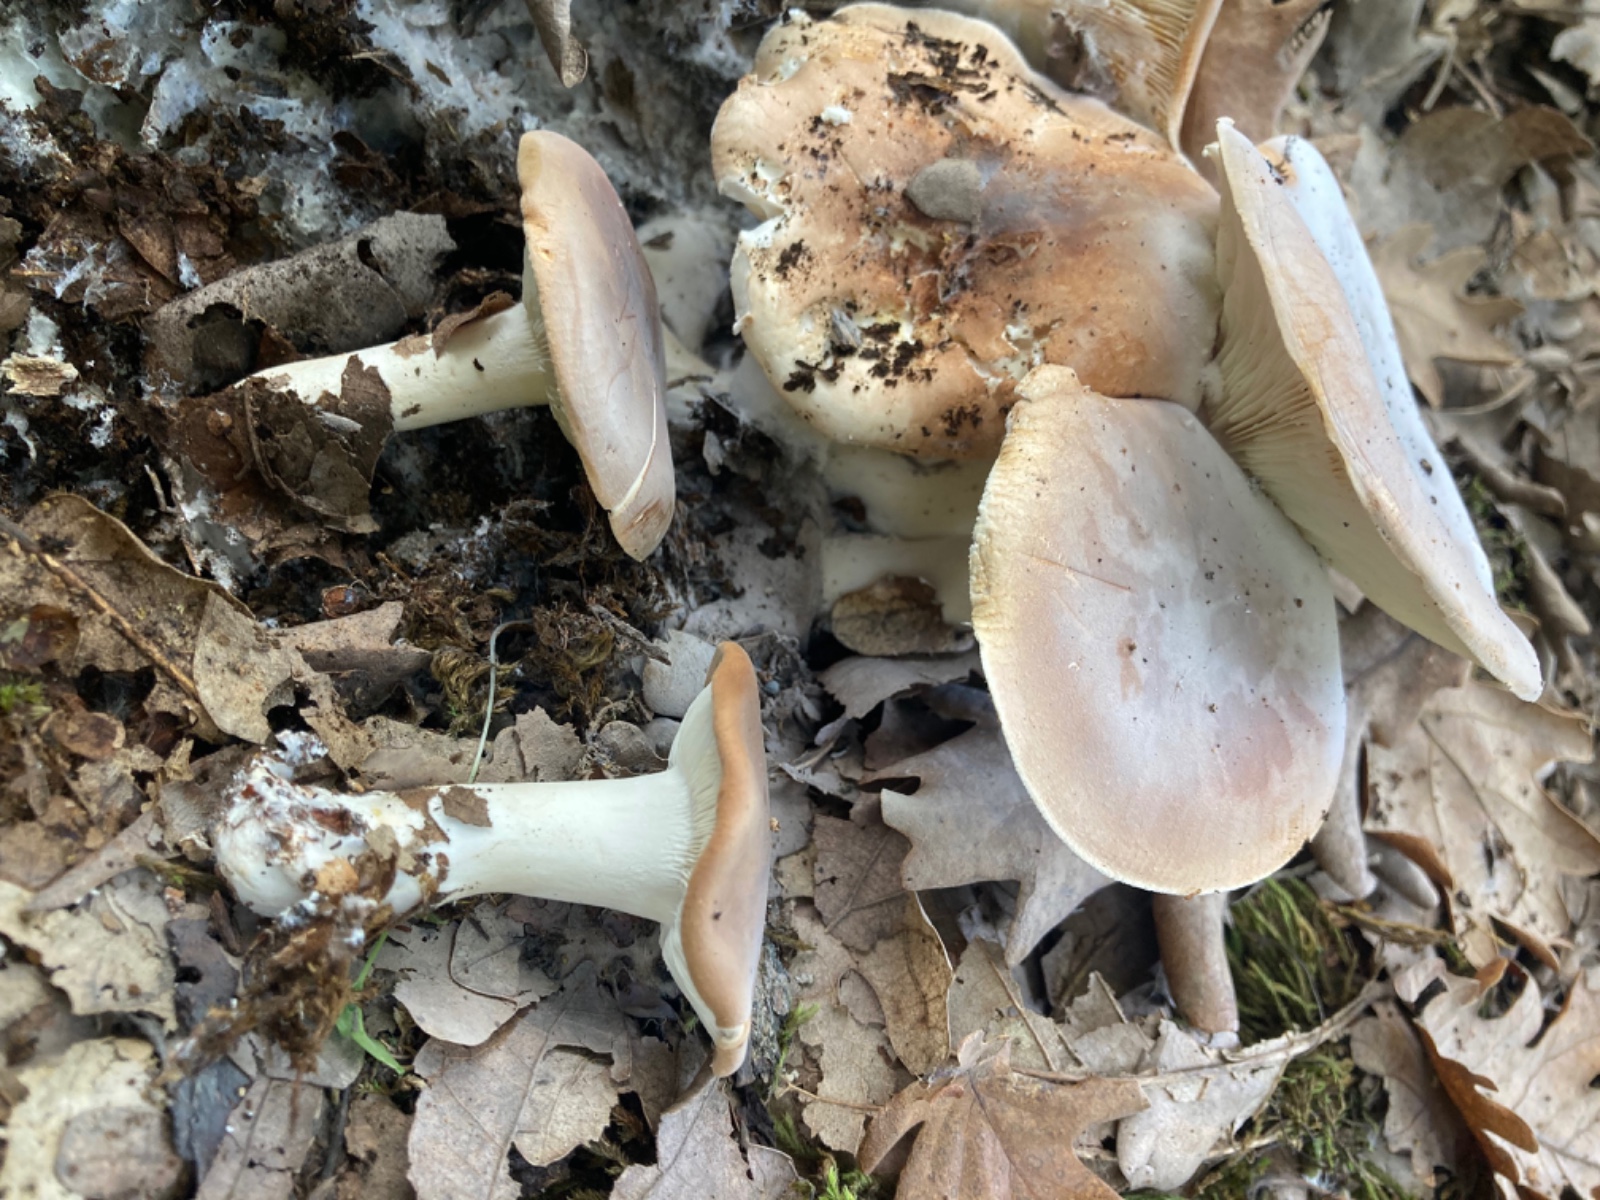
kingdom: Fungi
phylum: Basidiomycota
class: Agaricomycetes
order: Agaricales
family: Tricholomataceae
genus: Leucopaxillus
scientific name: Leucopaxillus gentianeus
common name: bitter tragtridderhat
